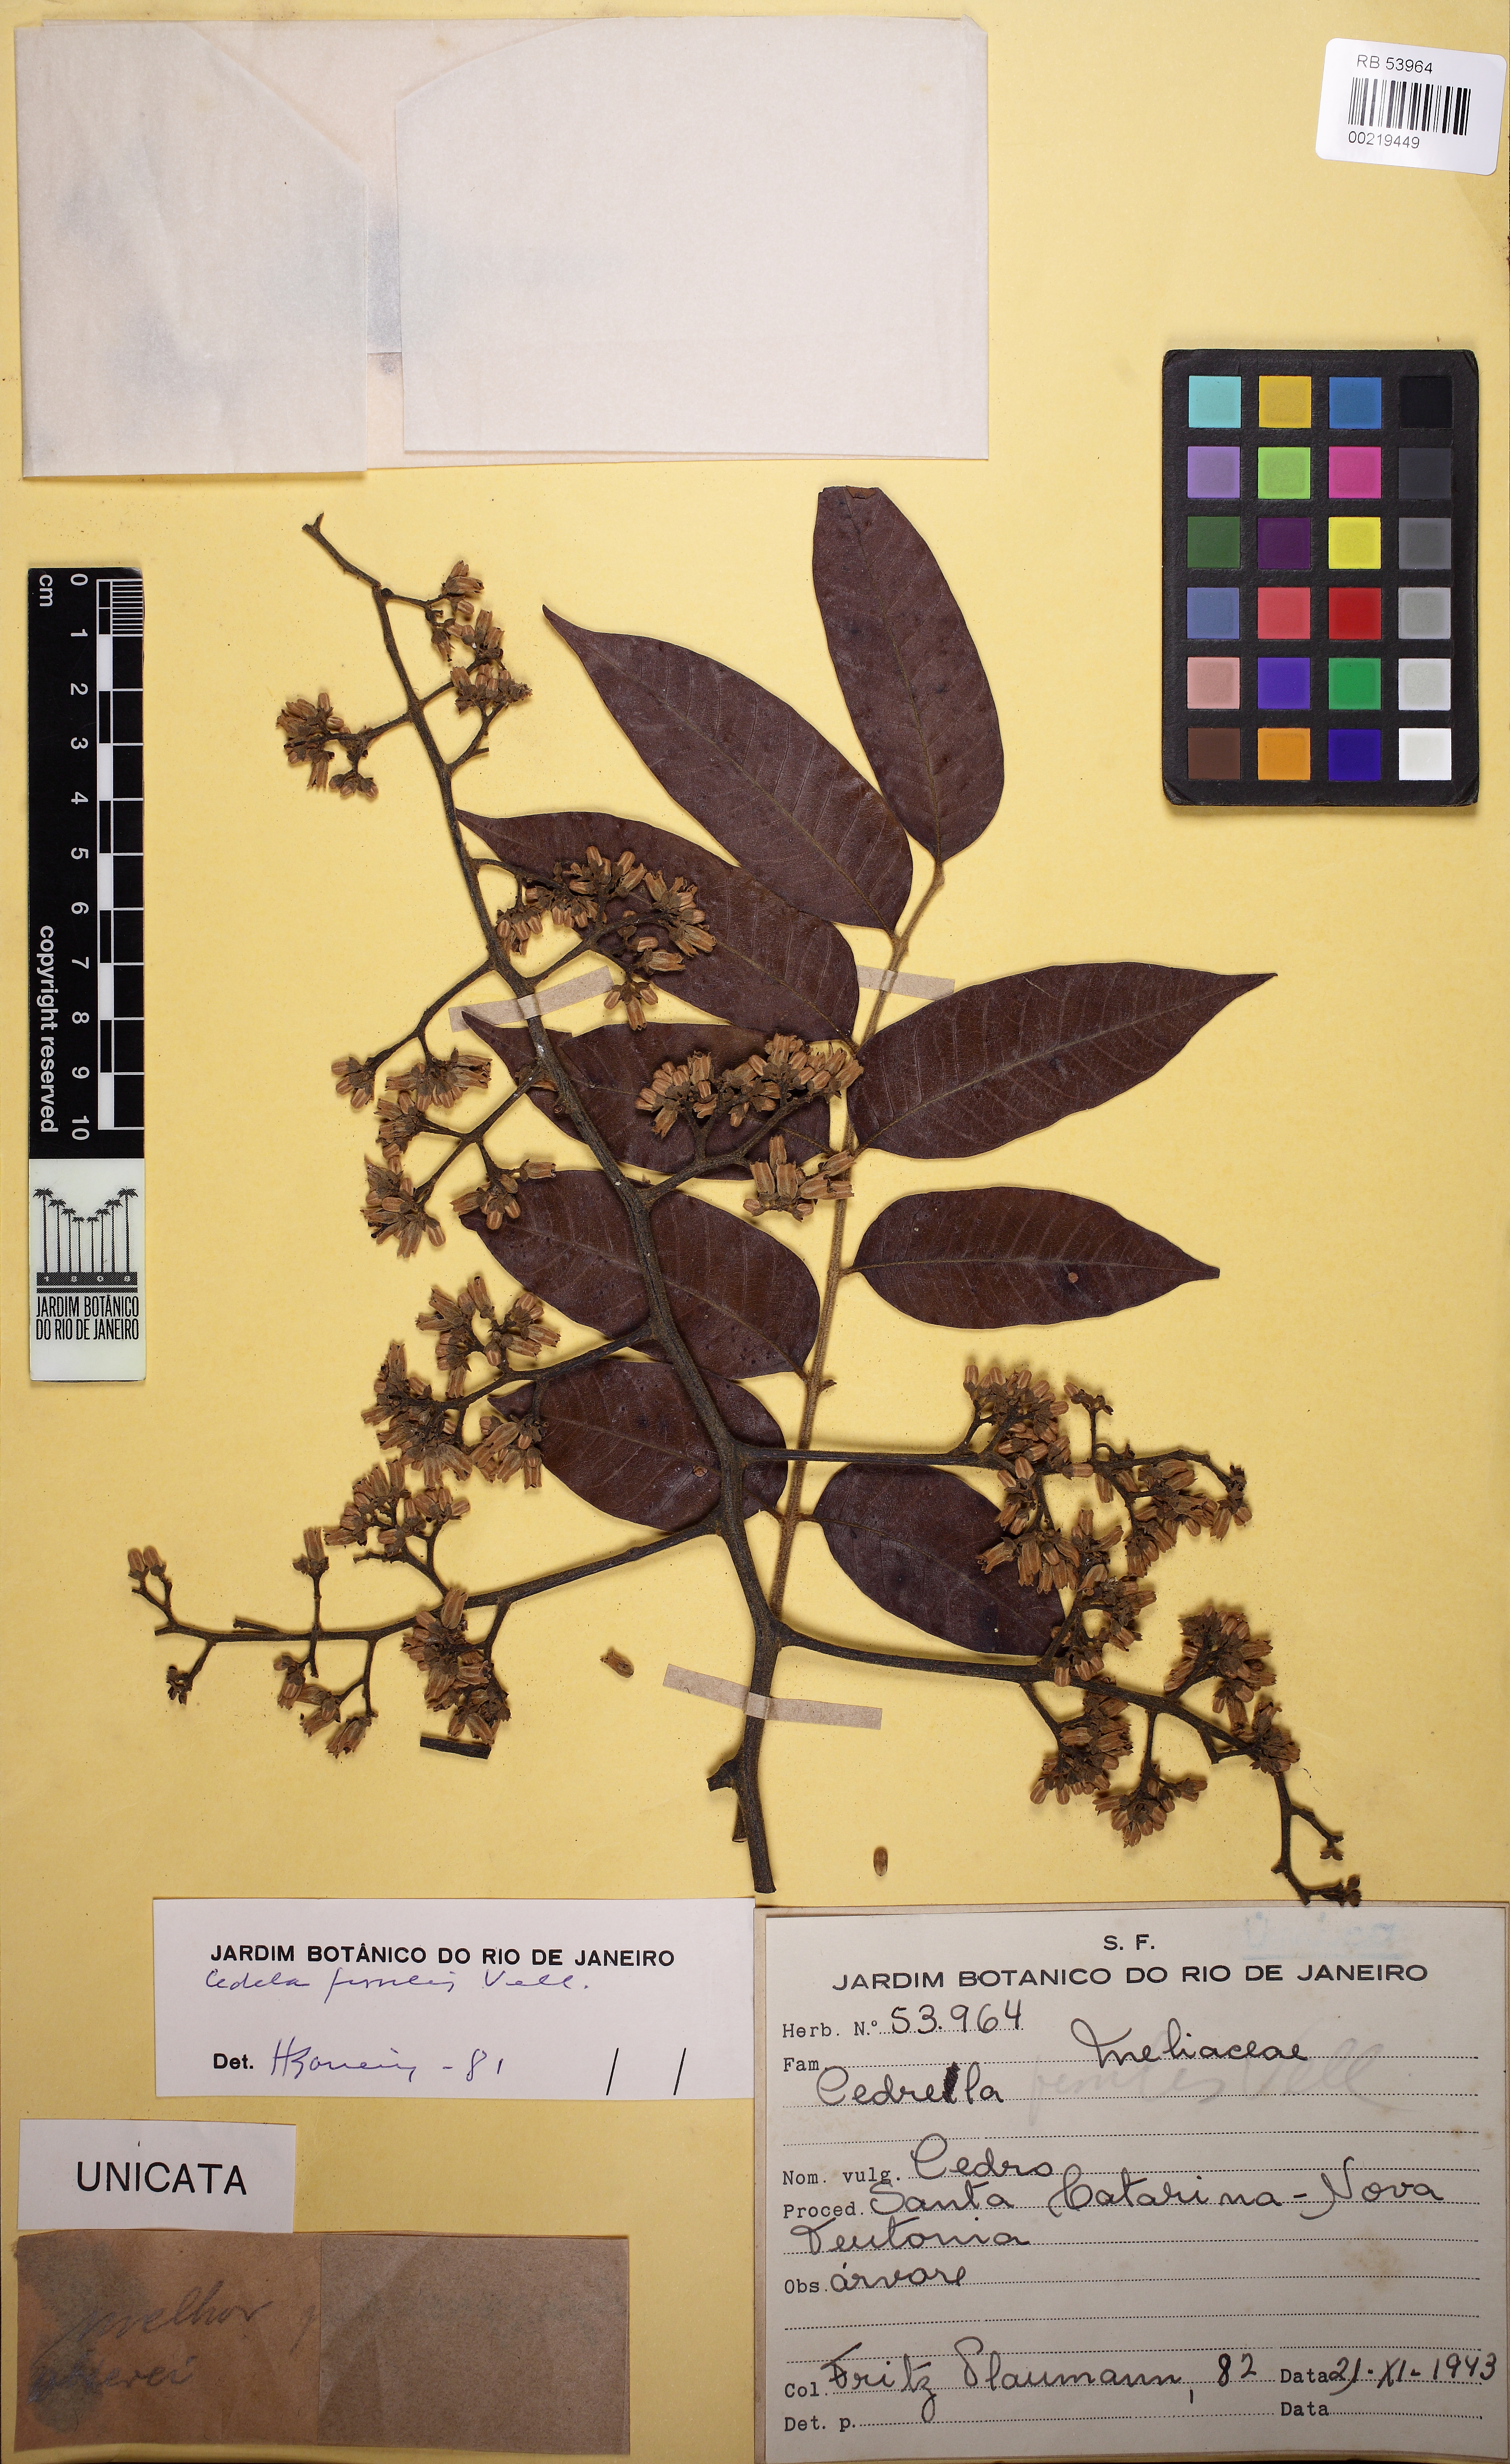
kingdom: Plantae
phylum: Tracheophyta
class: Magnoliopsida
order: Sapindales
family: Meliaceae
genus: Cedrela
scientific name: Cedrela fissilis
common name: Argentine cedar
